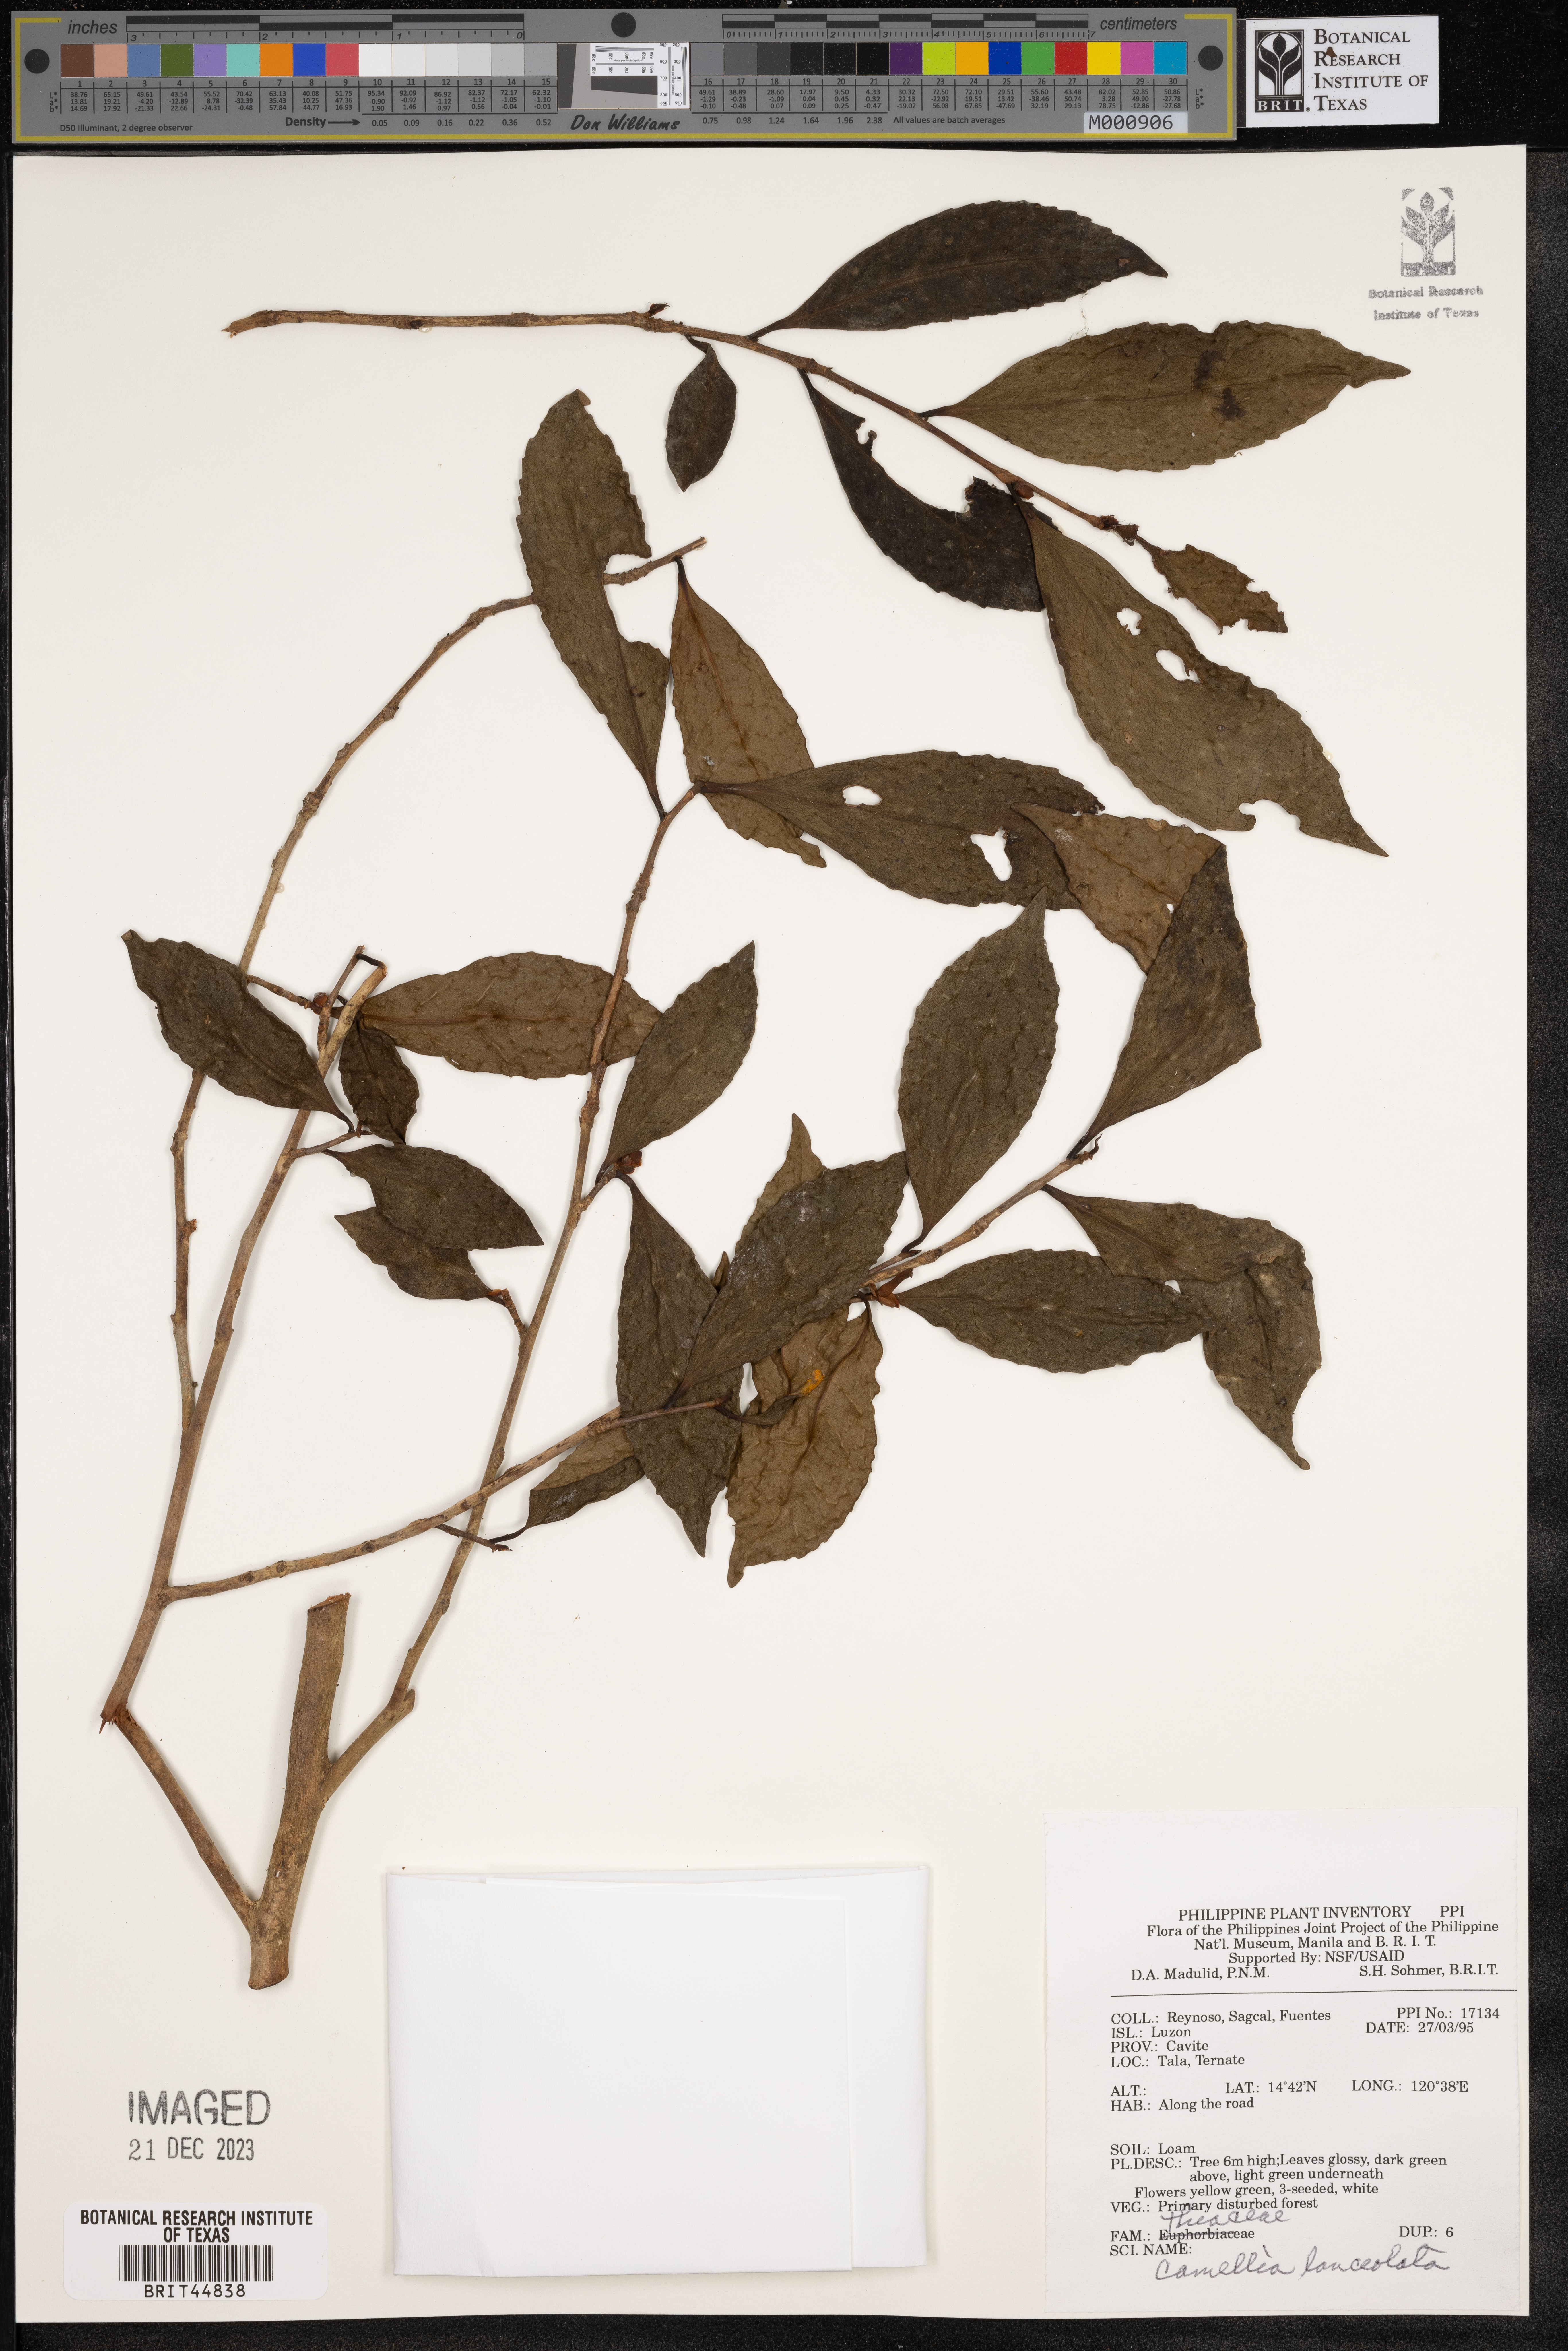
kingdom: Plantae
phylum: Tracheophyta
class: Magnoliopsida
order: Ericales
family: Theaceae
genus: Camellia
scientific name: Camellia lanceolata
